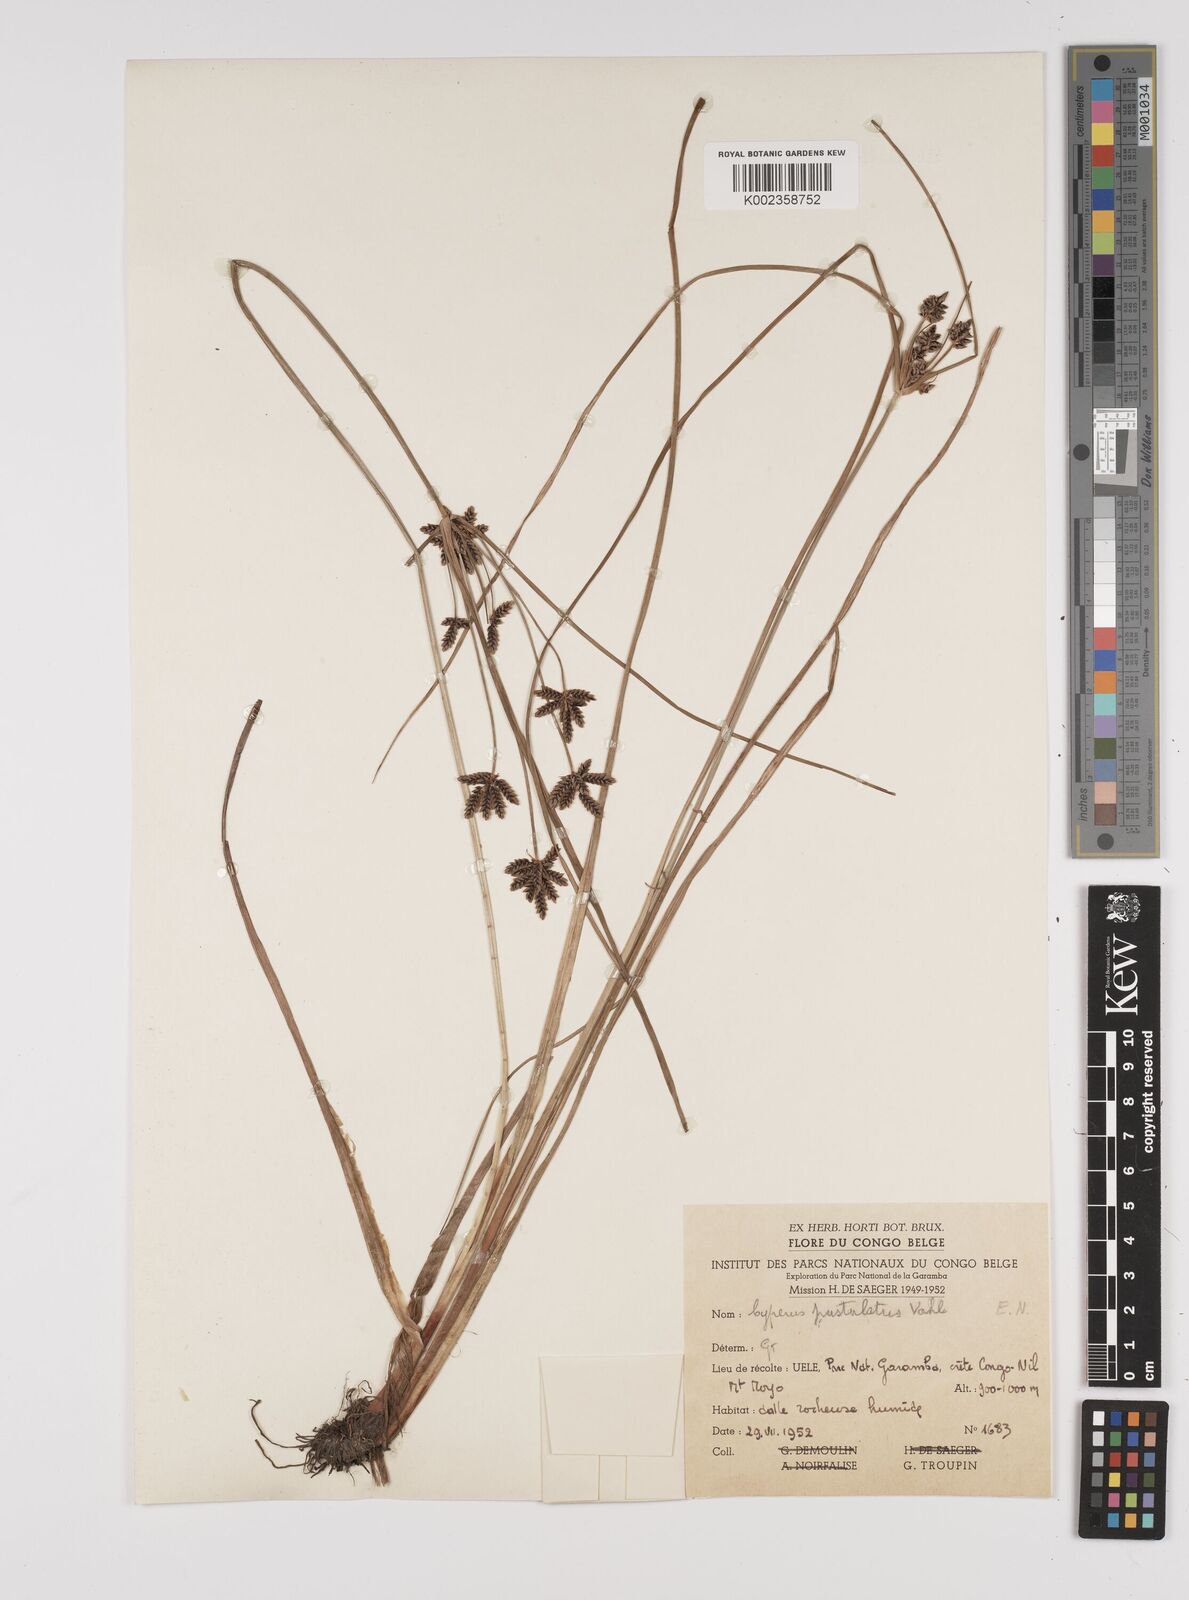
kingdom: Plantae
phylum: Tracheophyta
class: Liliopsida
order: Poales
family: Cyperaceae
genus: Cyperus
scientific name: Cyperus pustulatus
